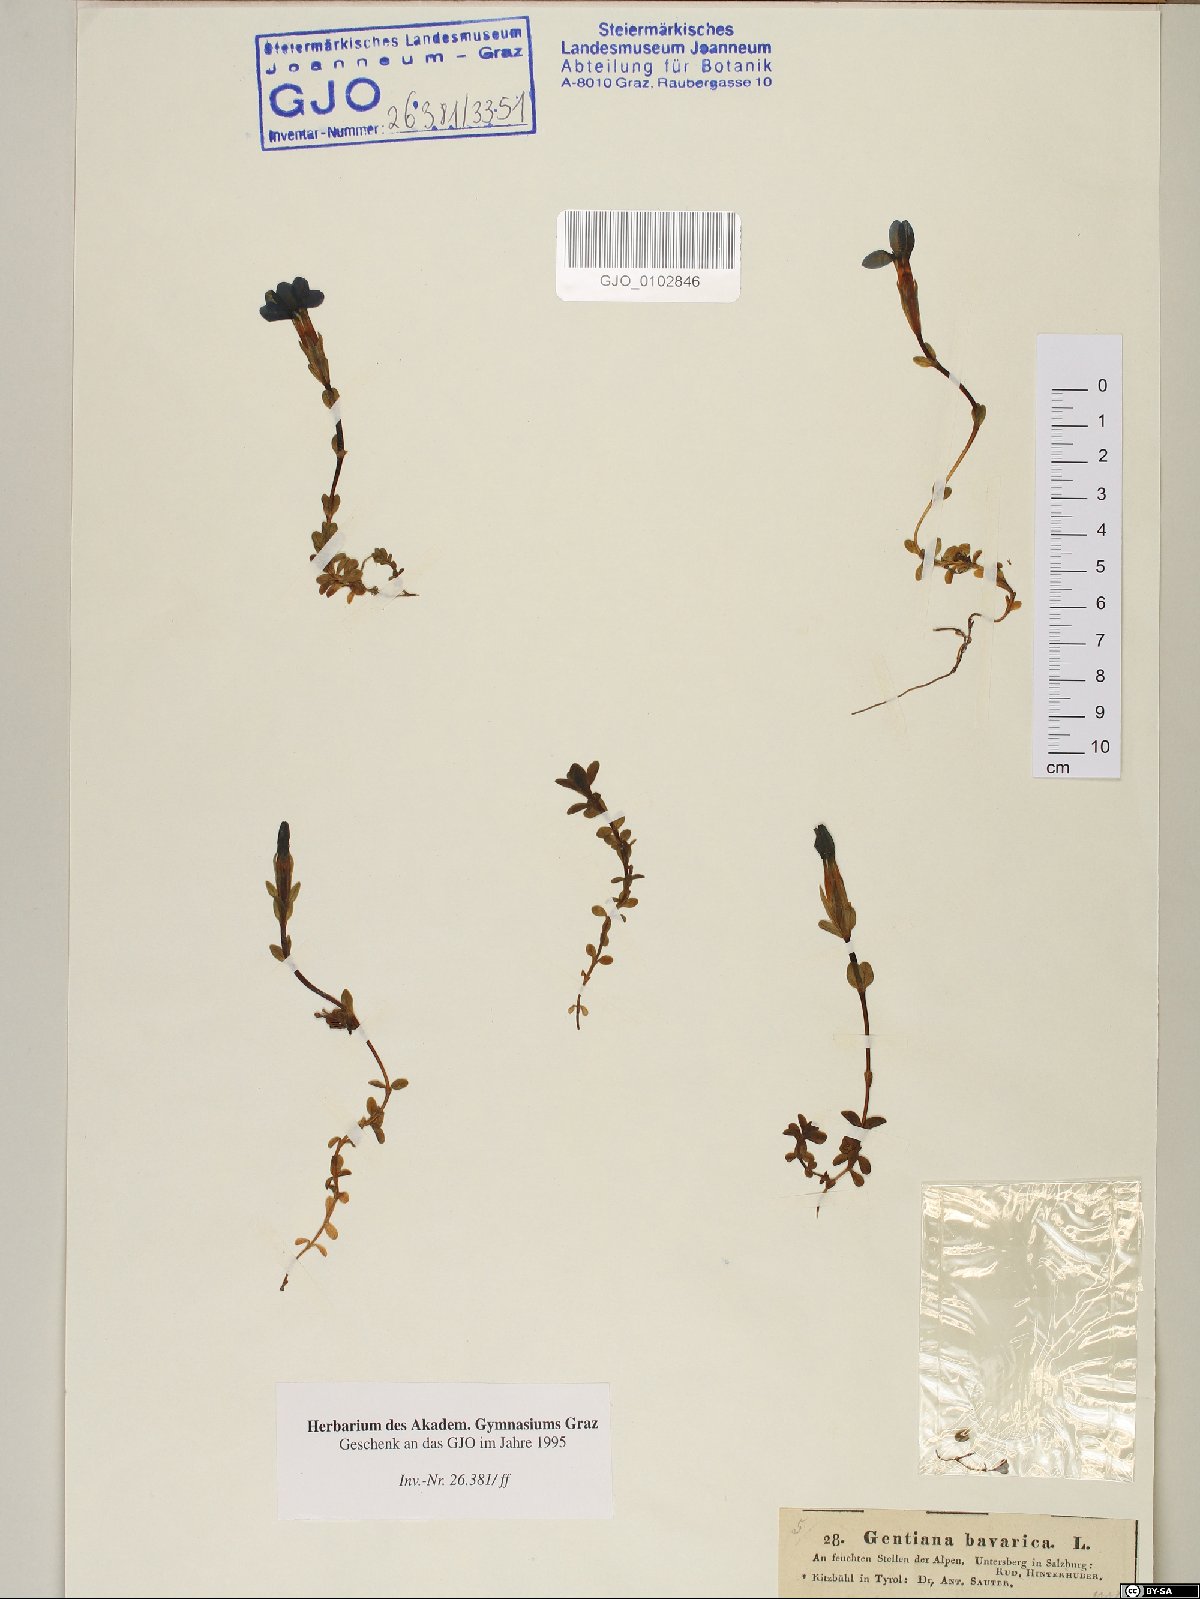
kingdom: Plantae
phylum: Tracheophyta
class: Magnoliopsida
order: Gentianales
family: Gentianaceae
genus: Gentiana
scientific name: Gentiana bavarica
